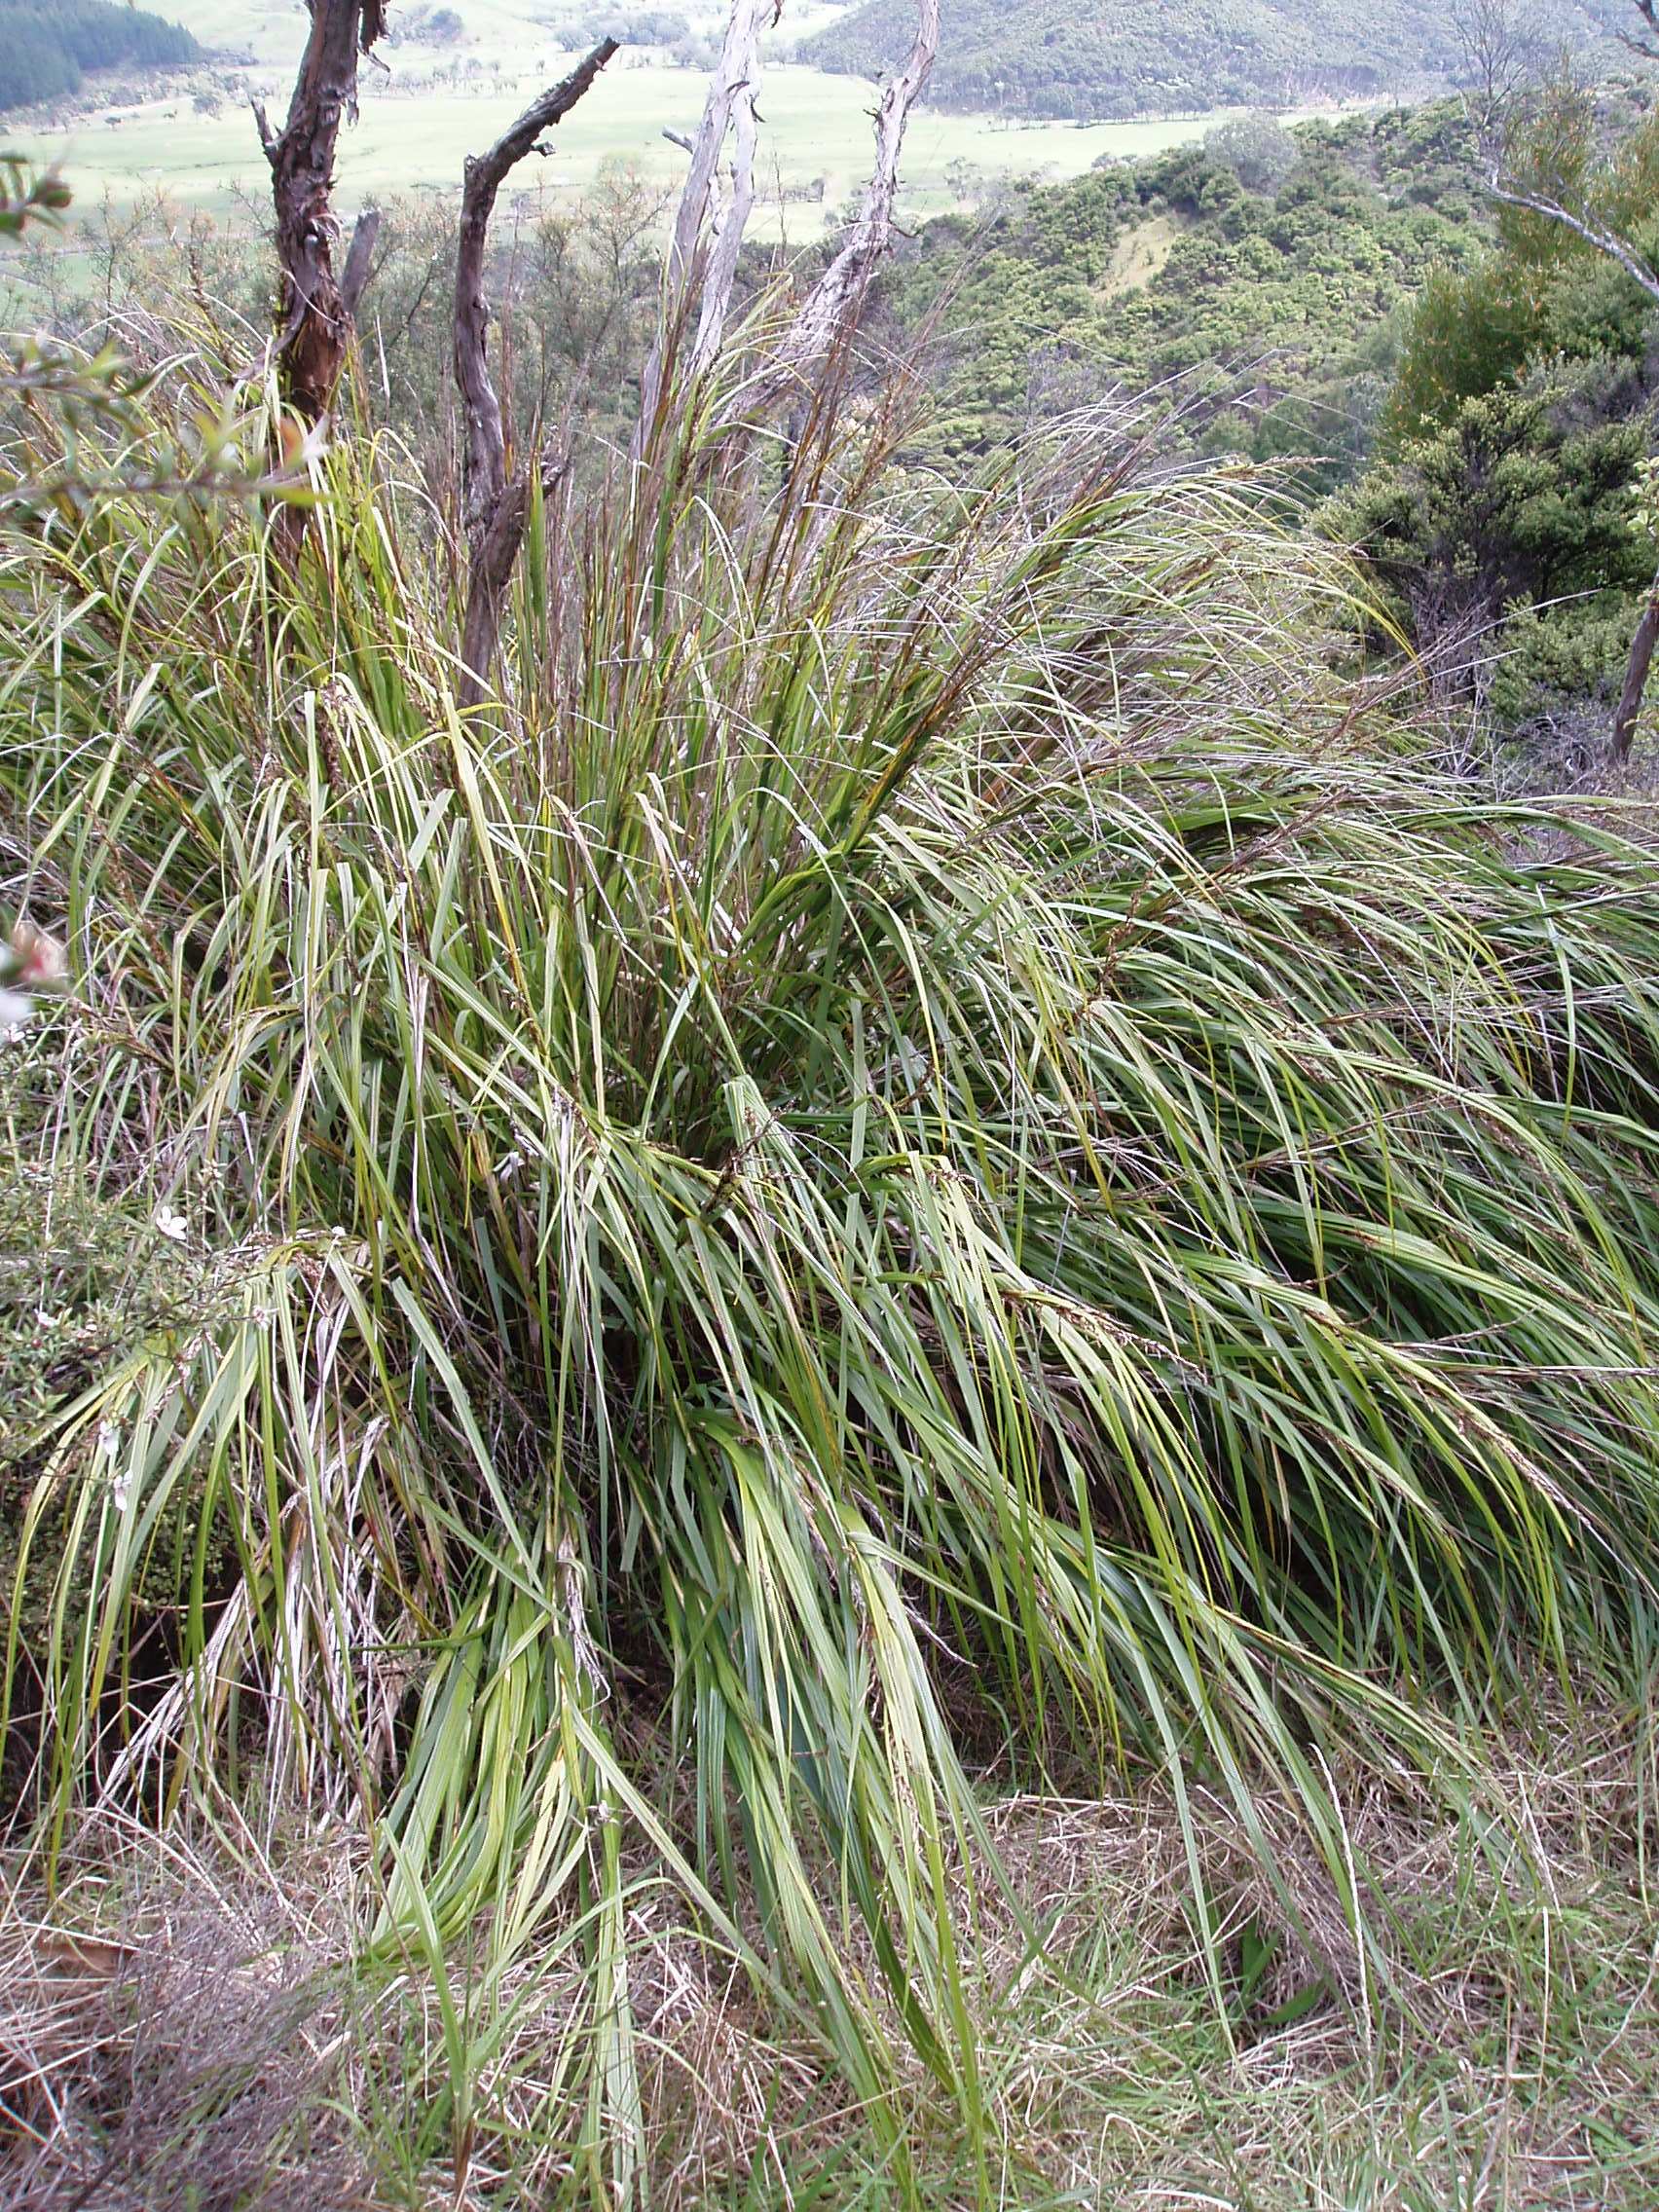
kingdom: Plantae
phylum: Tracheophyta
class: Liliopsida
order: Poales
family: Cyperaceae
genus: Gahnia
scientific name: Gahnia lacera
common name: Sawsedge
